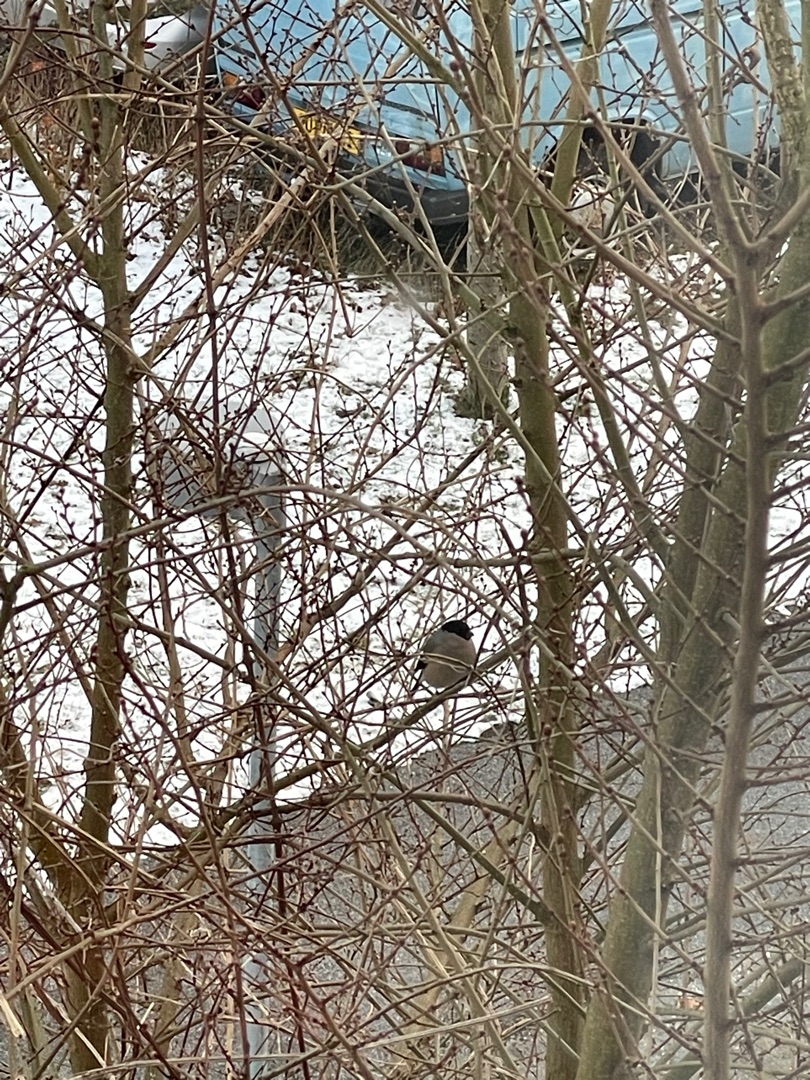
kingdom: Animalia
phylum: Chordata
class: Aves
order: Passeriformes
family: Fringillidae
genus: Pyrrhula
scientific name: Pyrrhula pyrrhula
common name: Dompap
